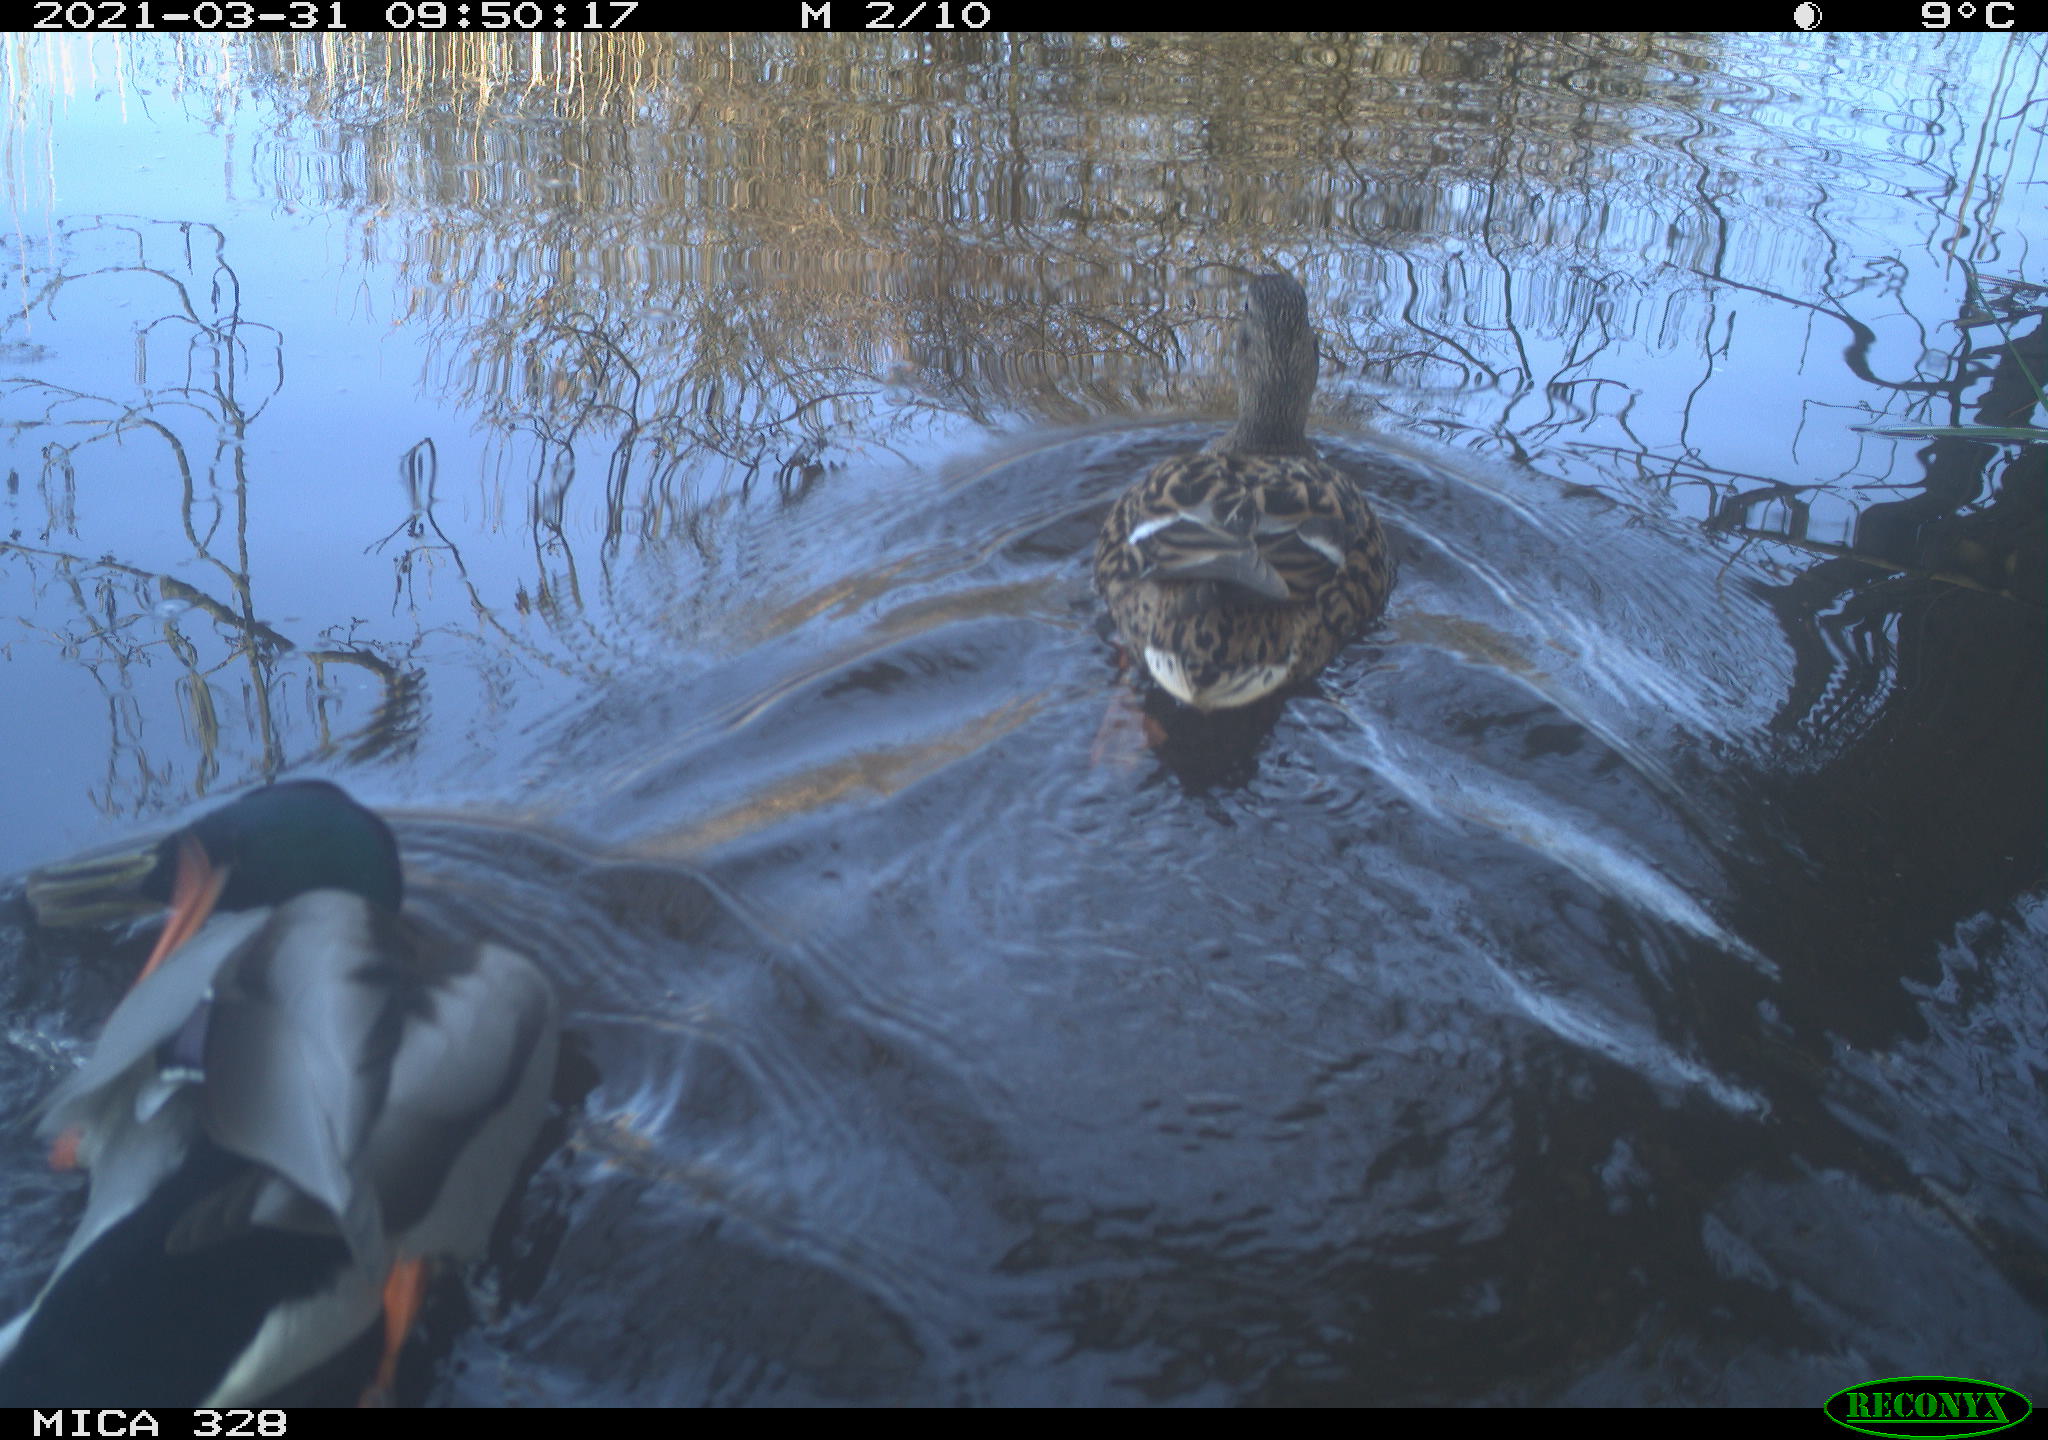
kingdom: Animalia
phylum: Chordata
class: Aves
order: Anseriformes
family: Anatidae
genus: Anas
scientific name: Anas platyrhynchos
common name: Mallard
